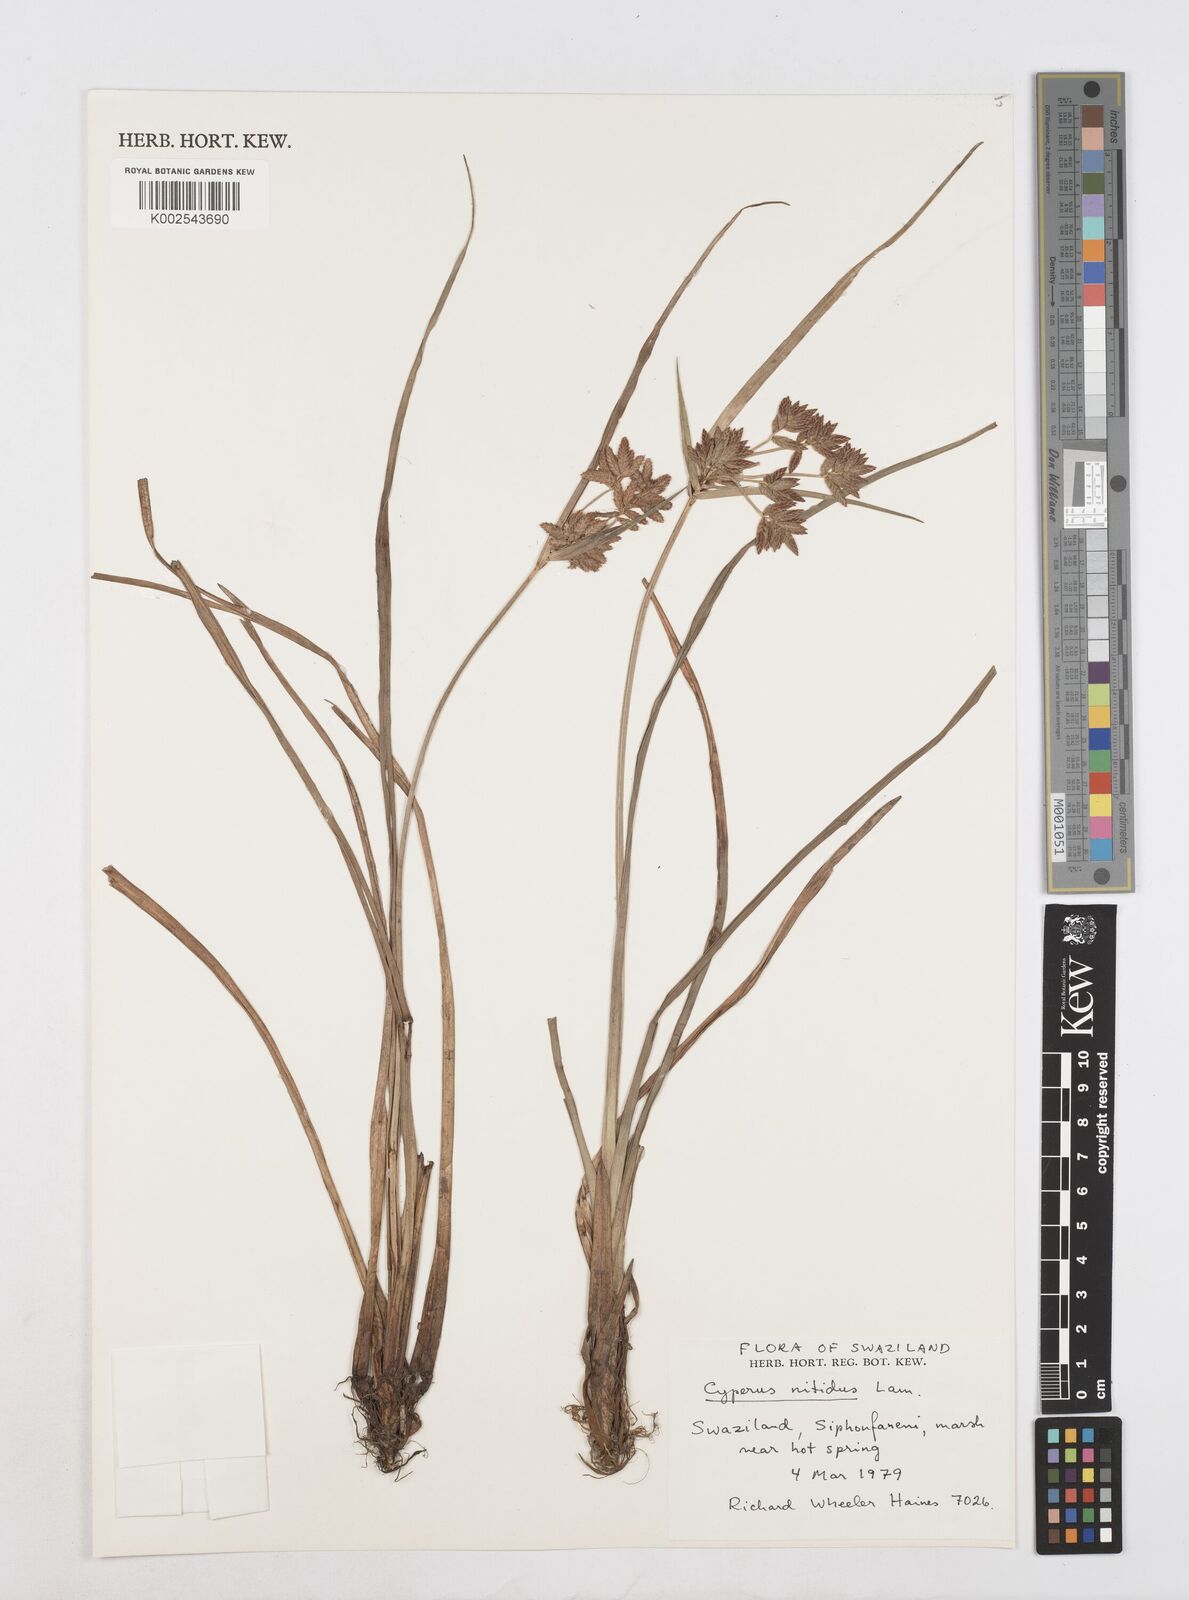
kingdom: Plantae
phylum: Tracheophyta
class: Liliopsida
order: Poales
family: Cyperaceae
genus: Cyperus
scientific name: Cyperus nitidus
